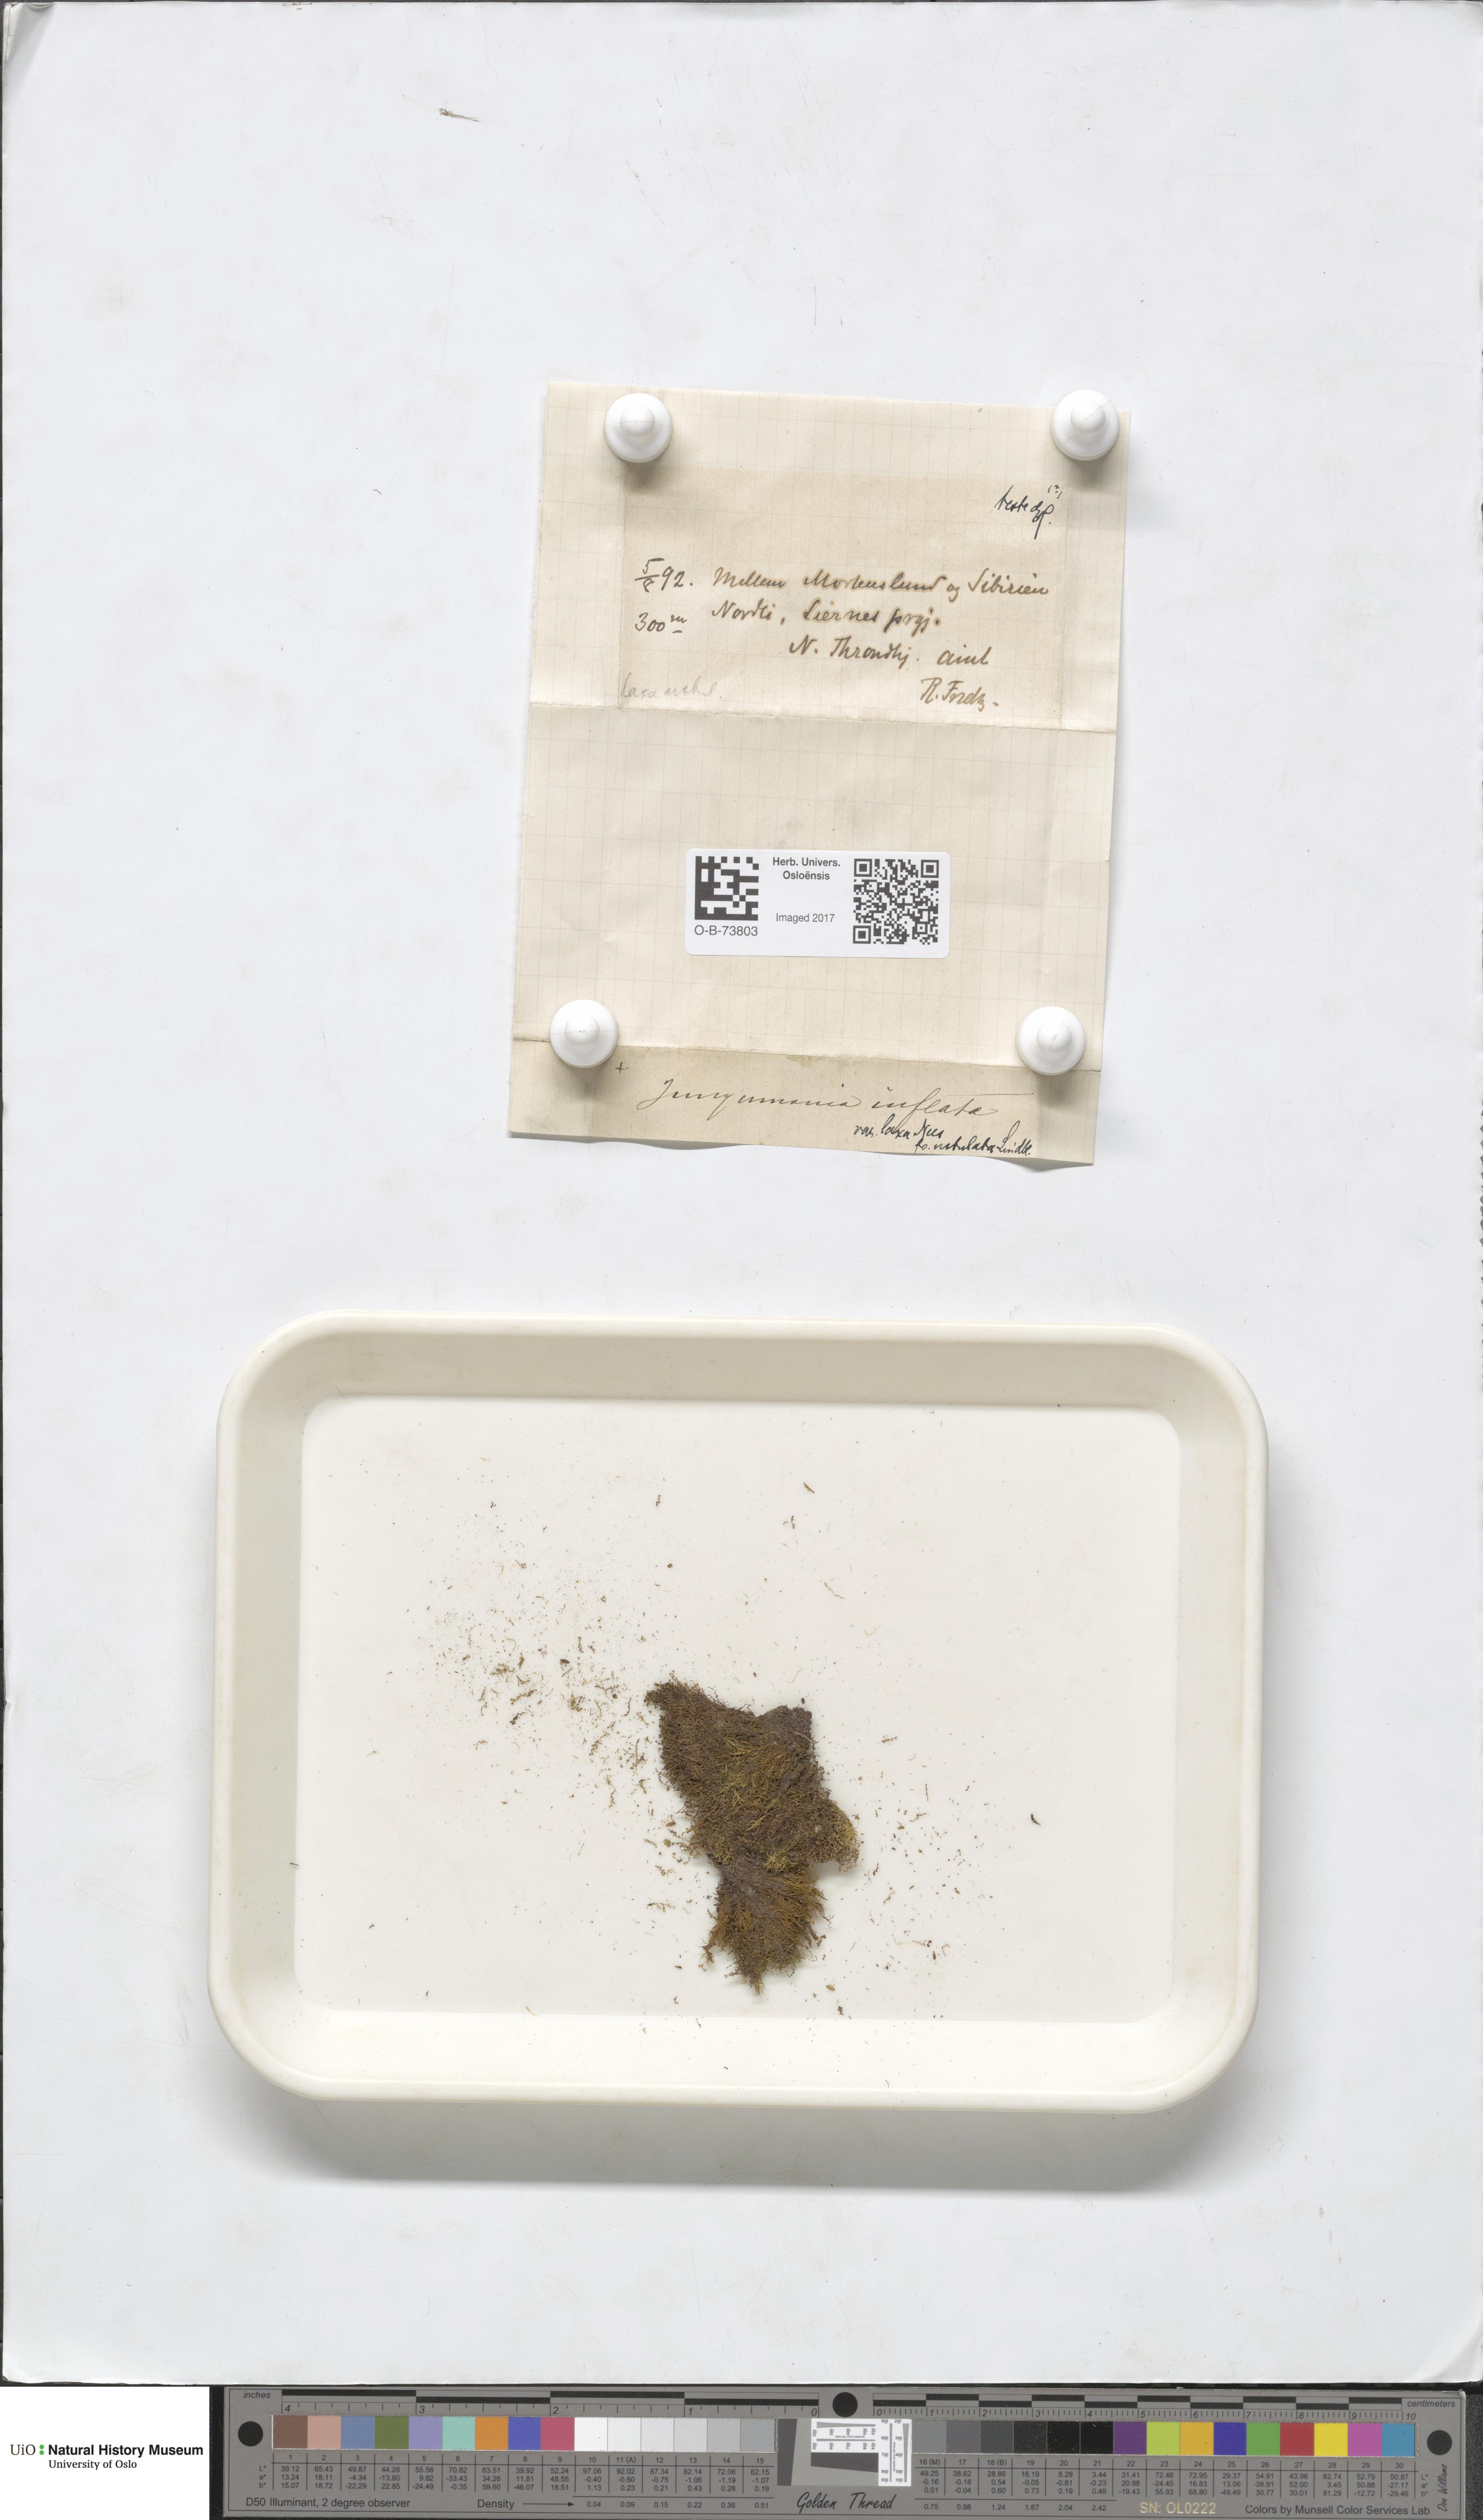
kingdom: Plantae
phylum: Marchantiophyta
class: Jungermanniopsida
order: Jungermanniales
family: Anastrophyllaceae
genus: Gymnocolea
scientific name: Gymnocolea inflata
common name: Inflated notchwort
